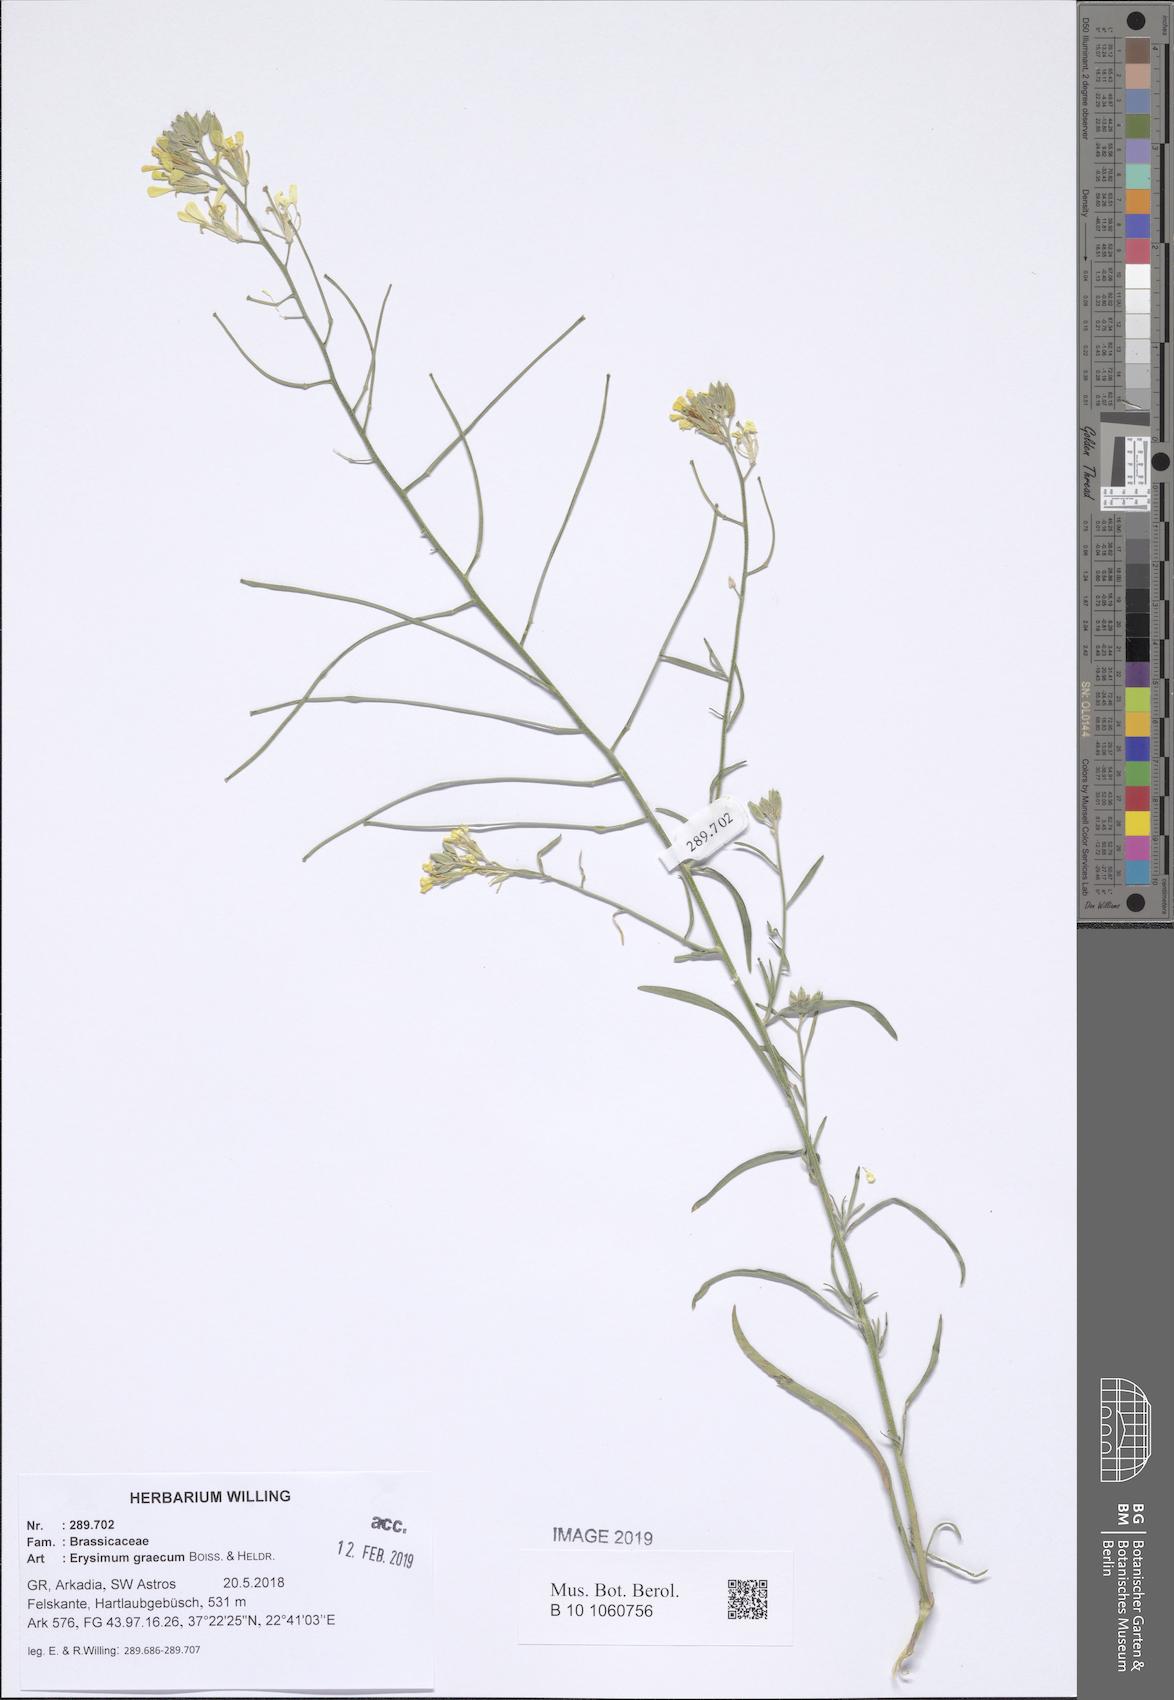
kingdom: Plantae
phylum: Tracheophyta
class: Magnoliopsida
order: Brassicales
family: Brassicaceae
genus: Erysimum
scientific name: Erysimum graecum
